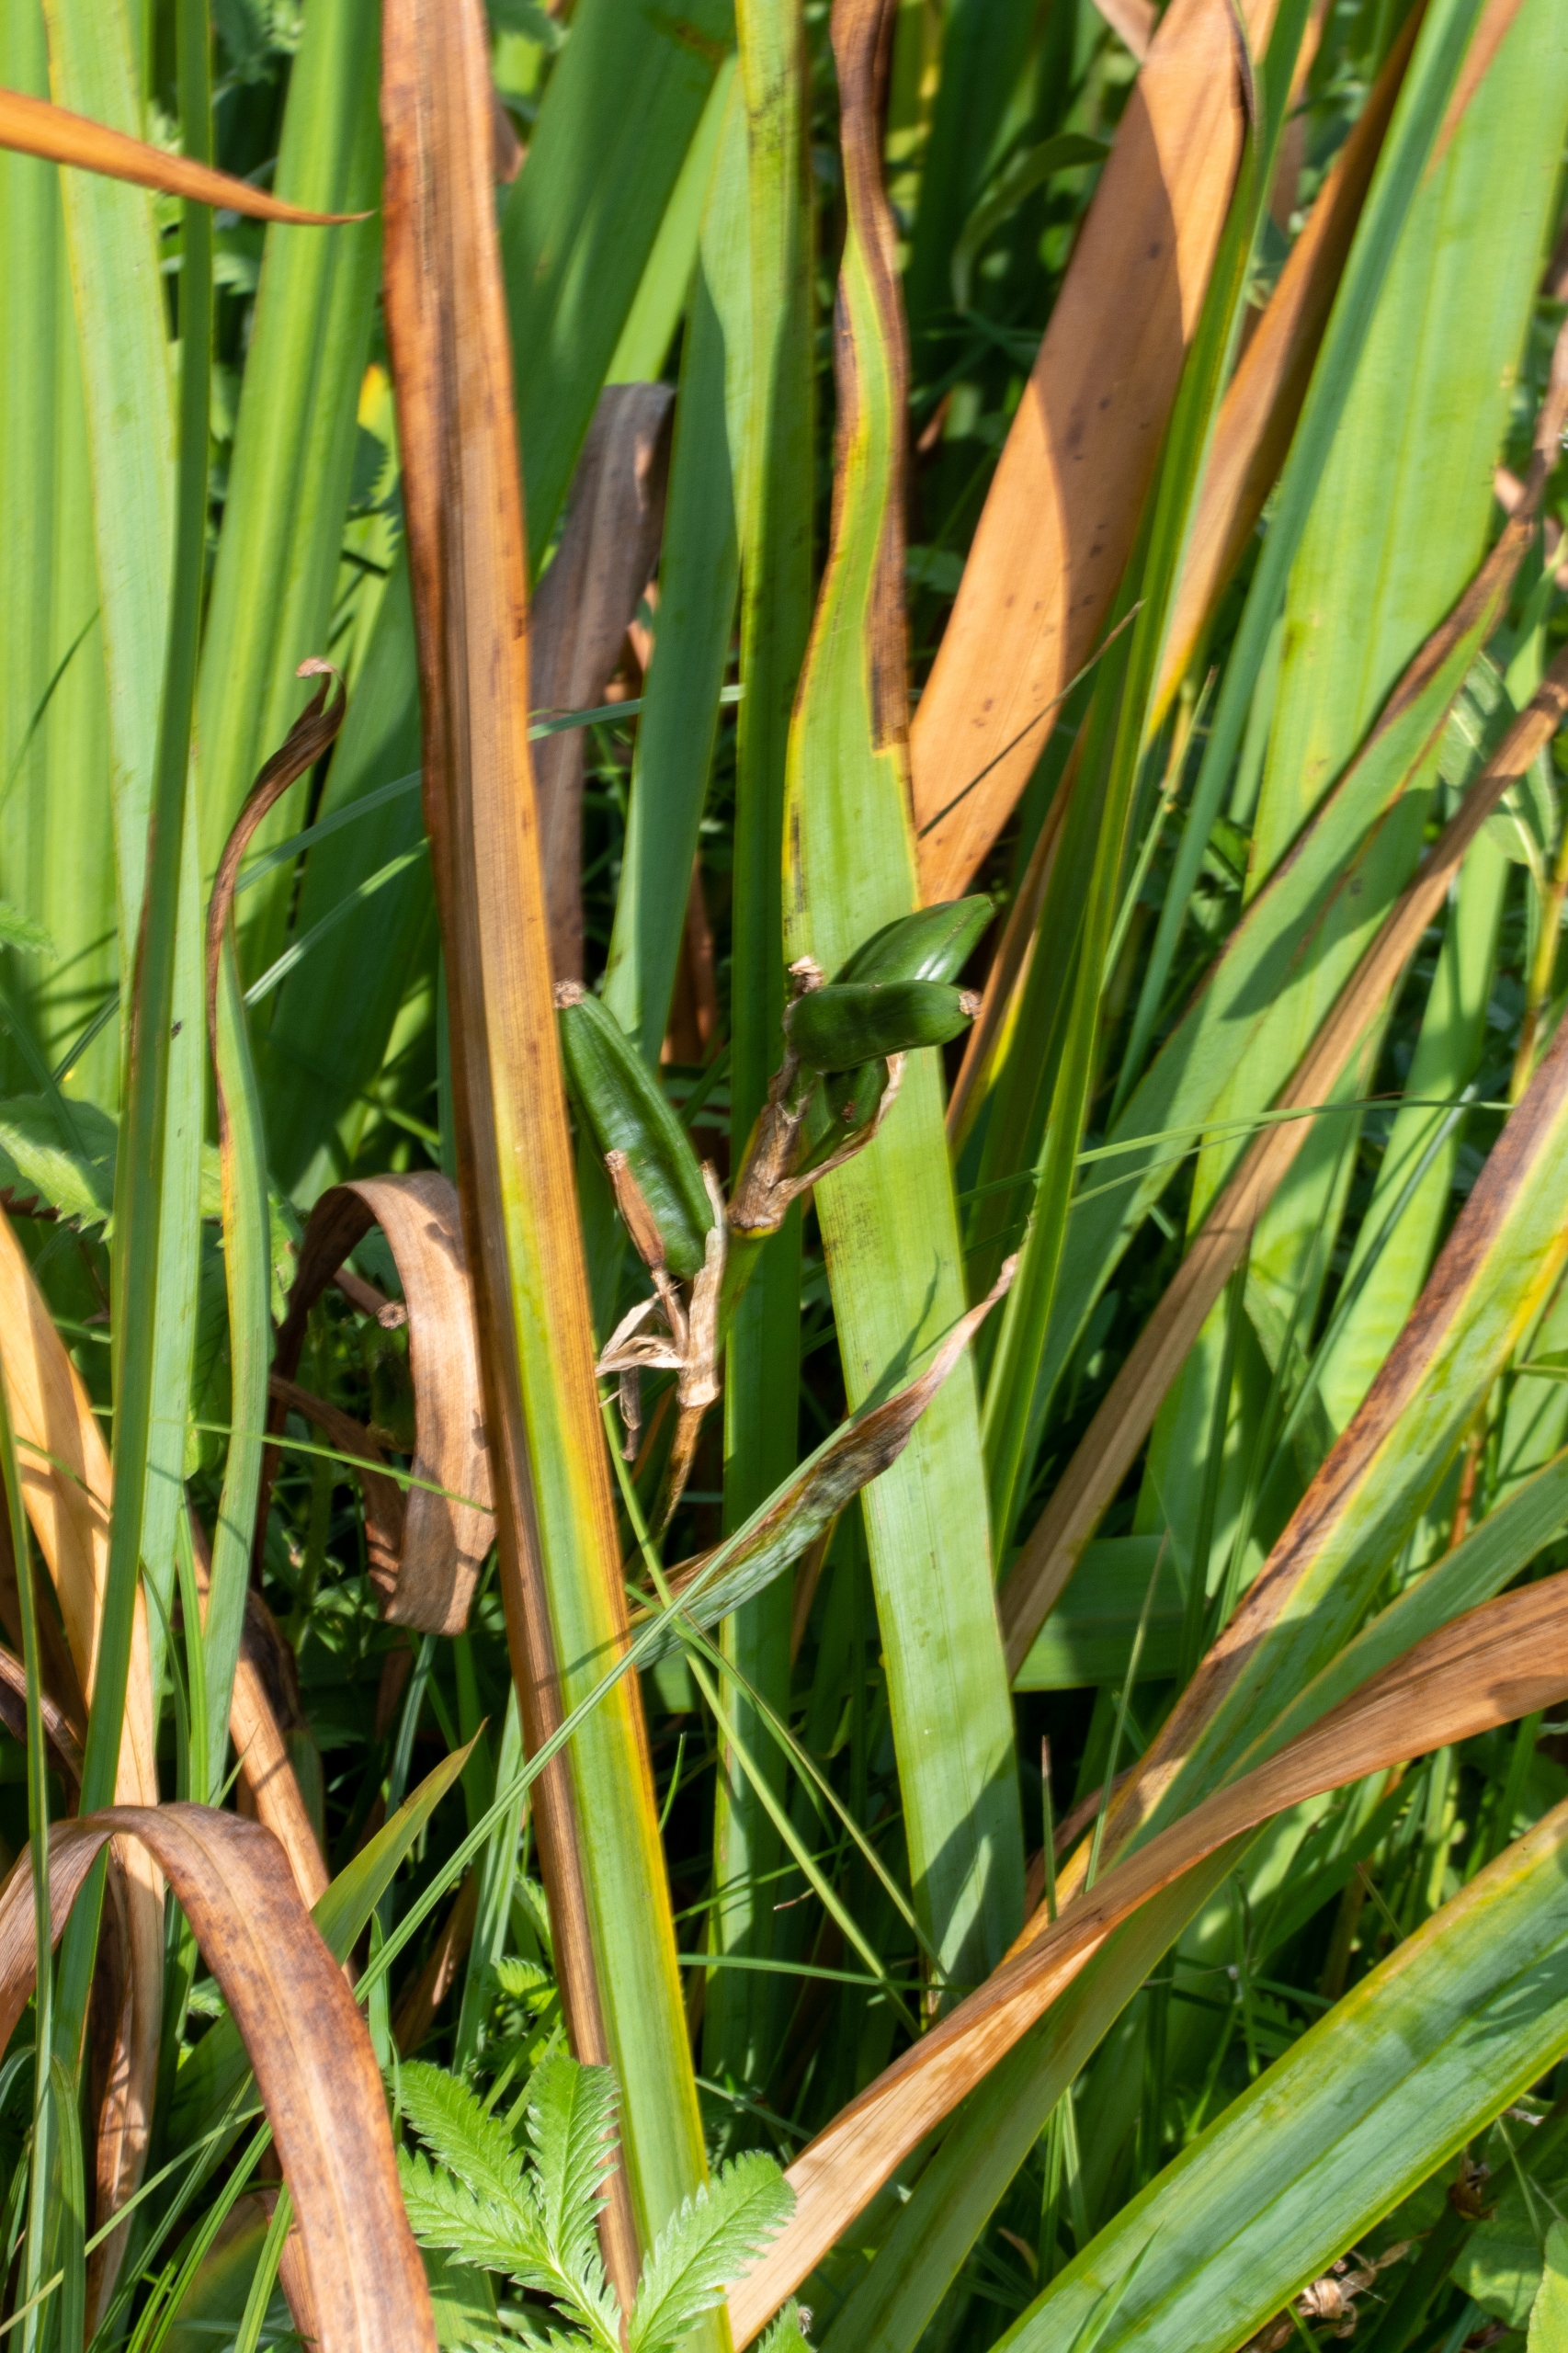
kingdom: Plantae
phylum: Tracheophyta
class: Liliopsida
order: Asparagales
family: Iridaceae
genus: Iris
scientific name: Iris pseudacorus
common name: Gul iris
